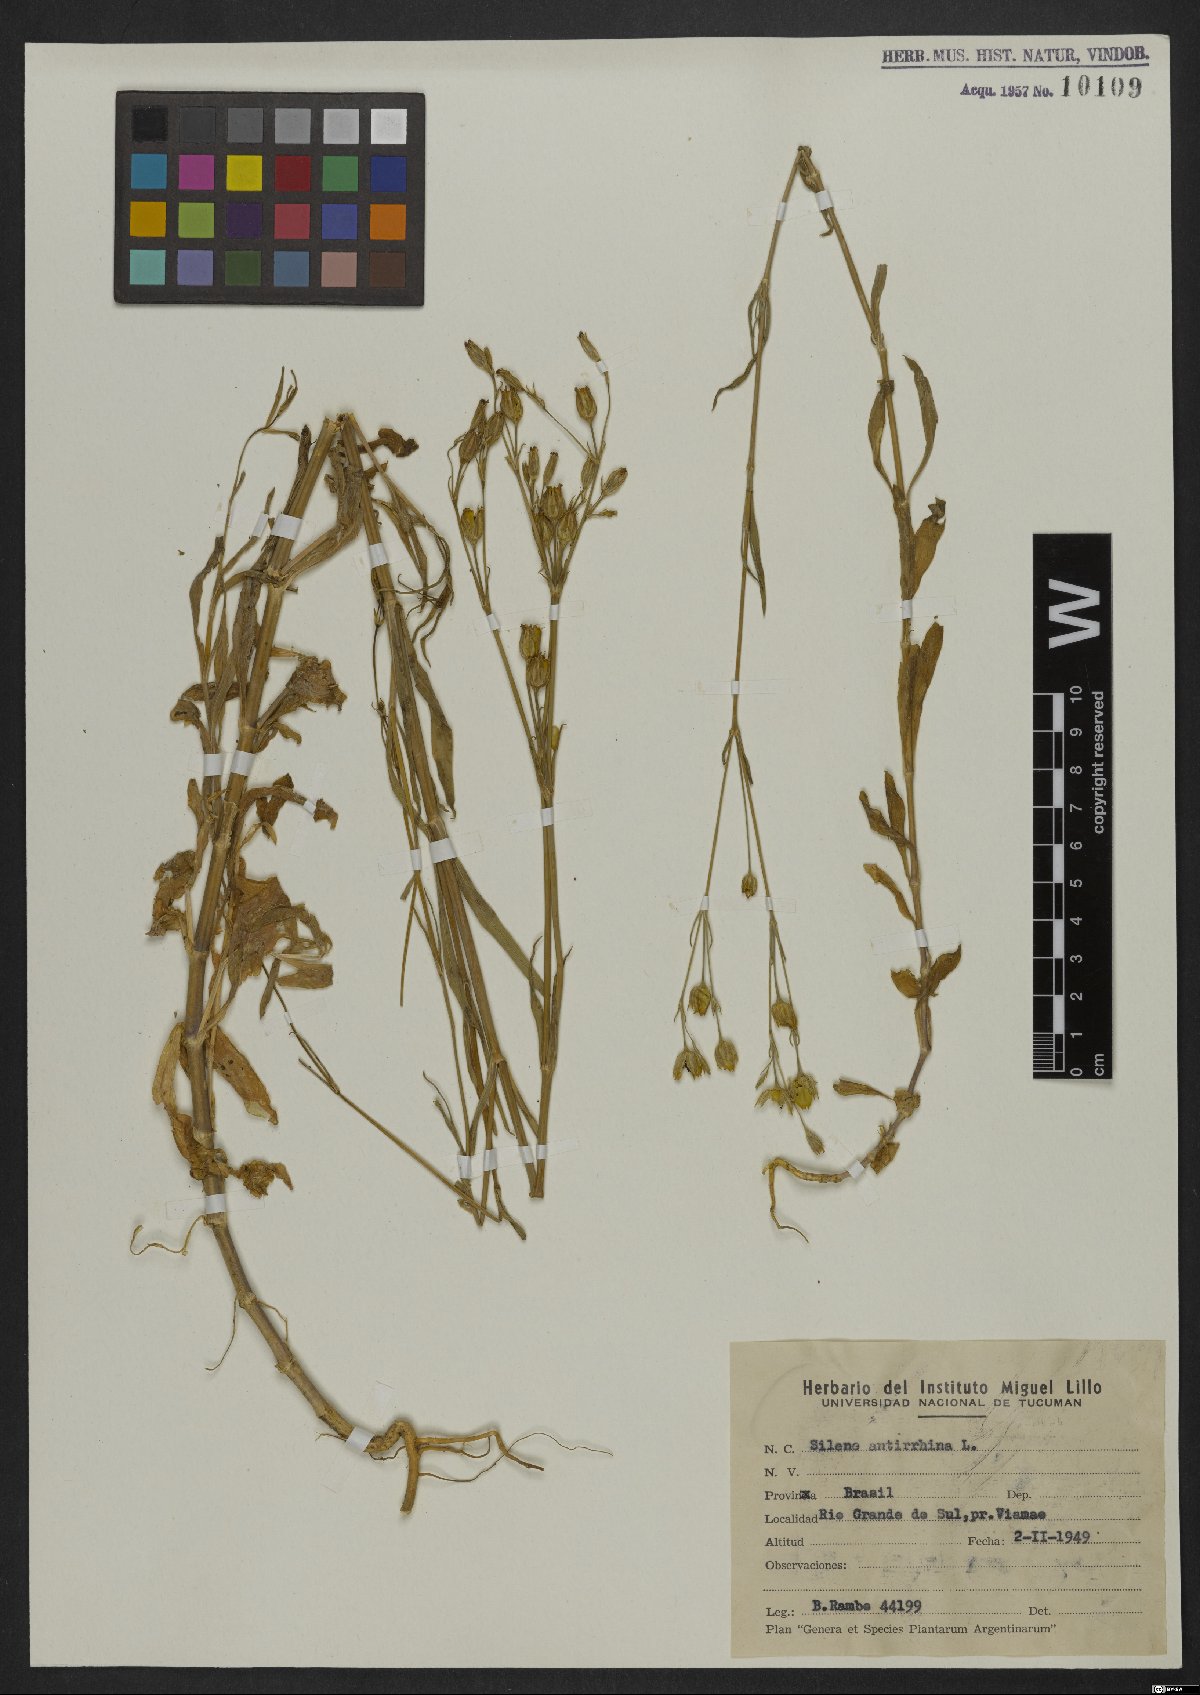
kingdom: Plantae
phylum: Tracheophyta
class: Magnoliopsida
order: Caryophyllales
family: Caryophyllaceae
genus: Silene
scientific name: Silene antirrhina
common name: Sleepy catchfly
